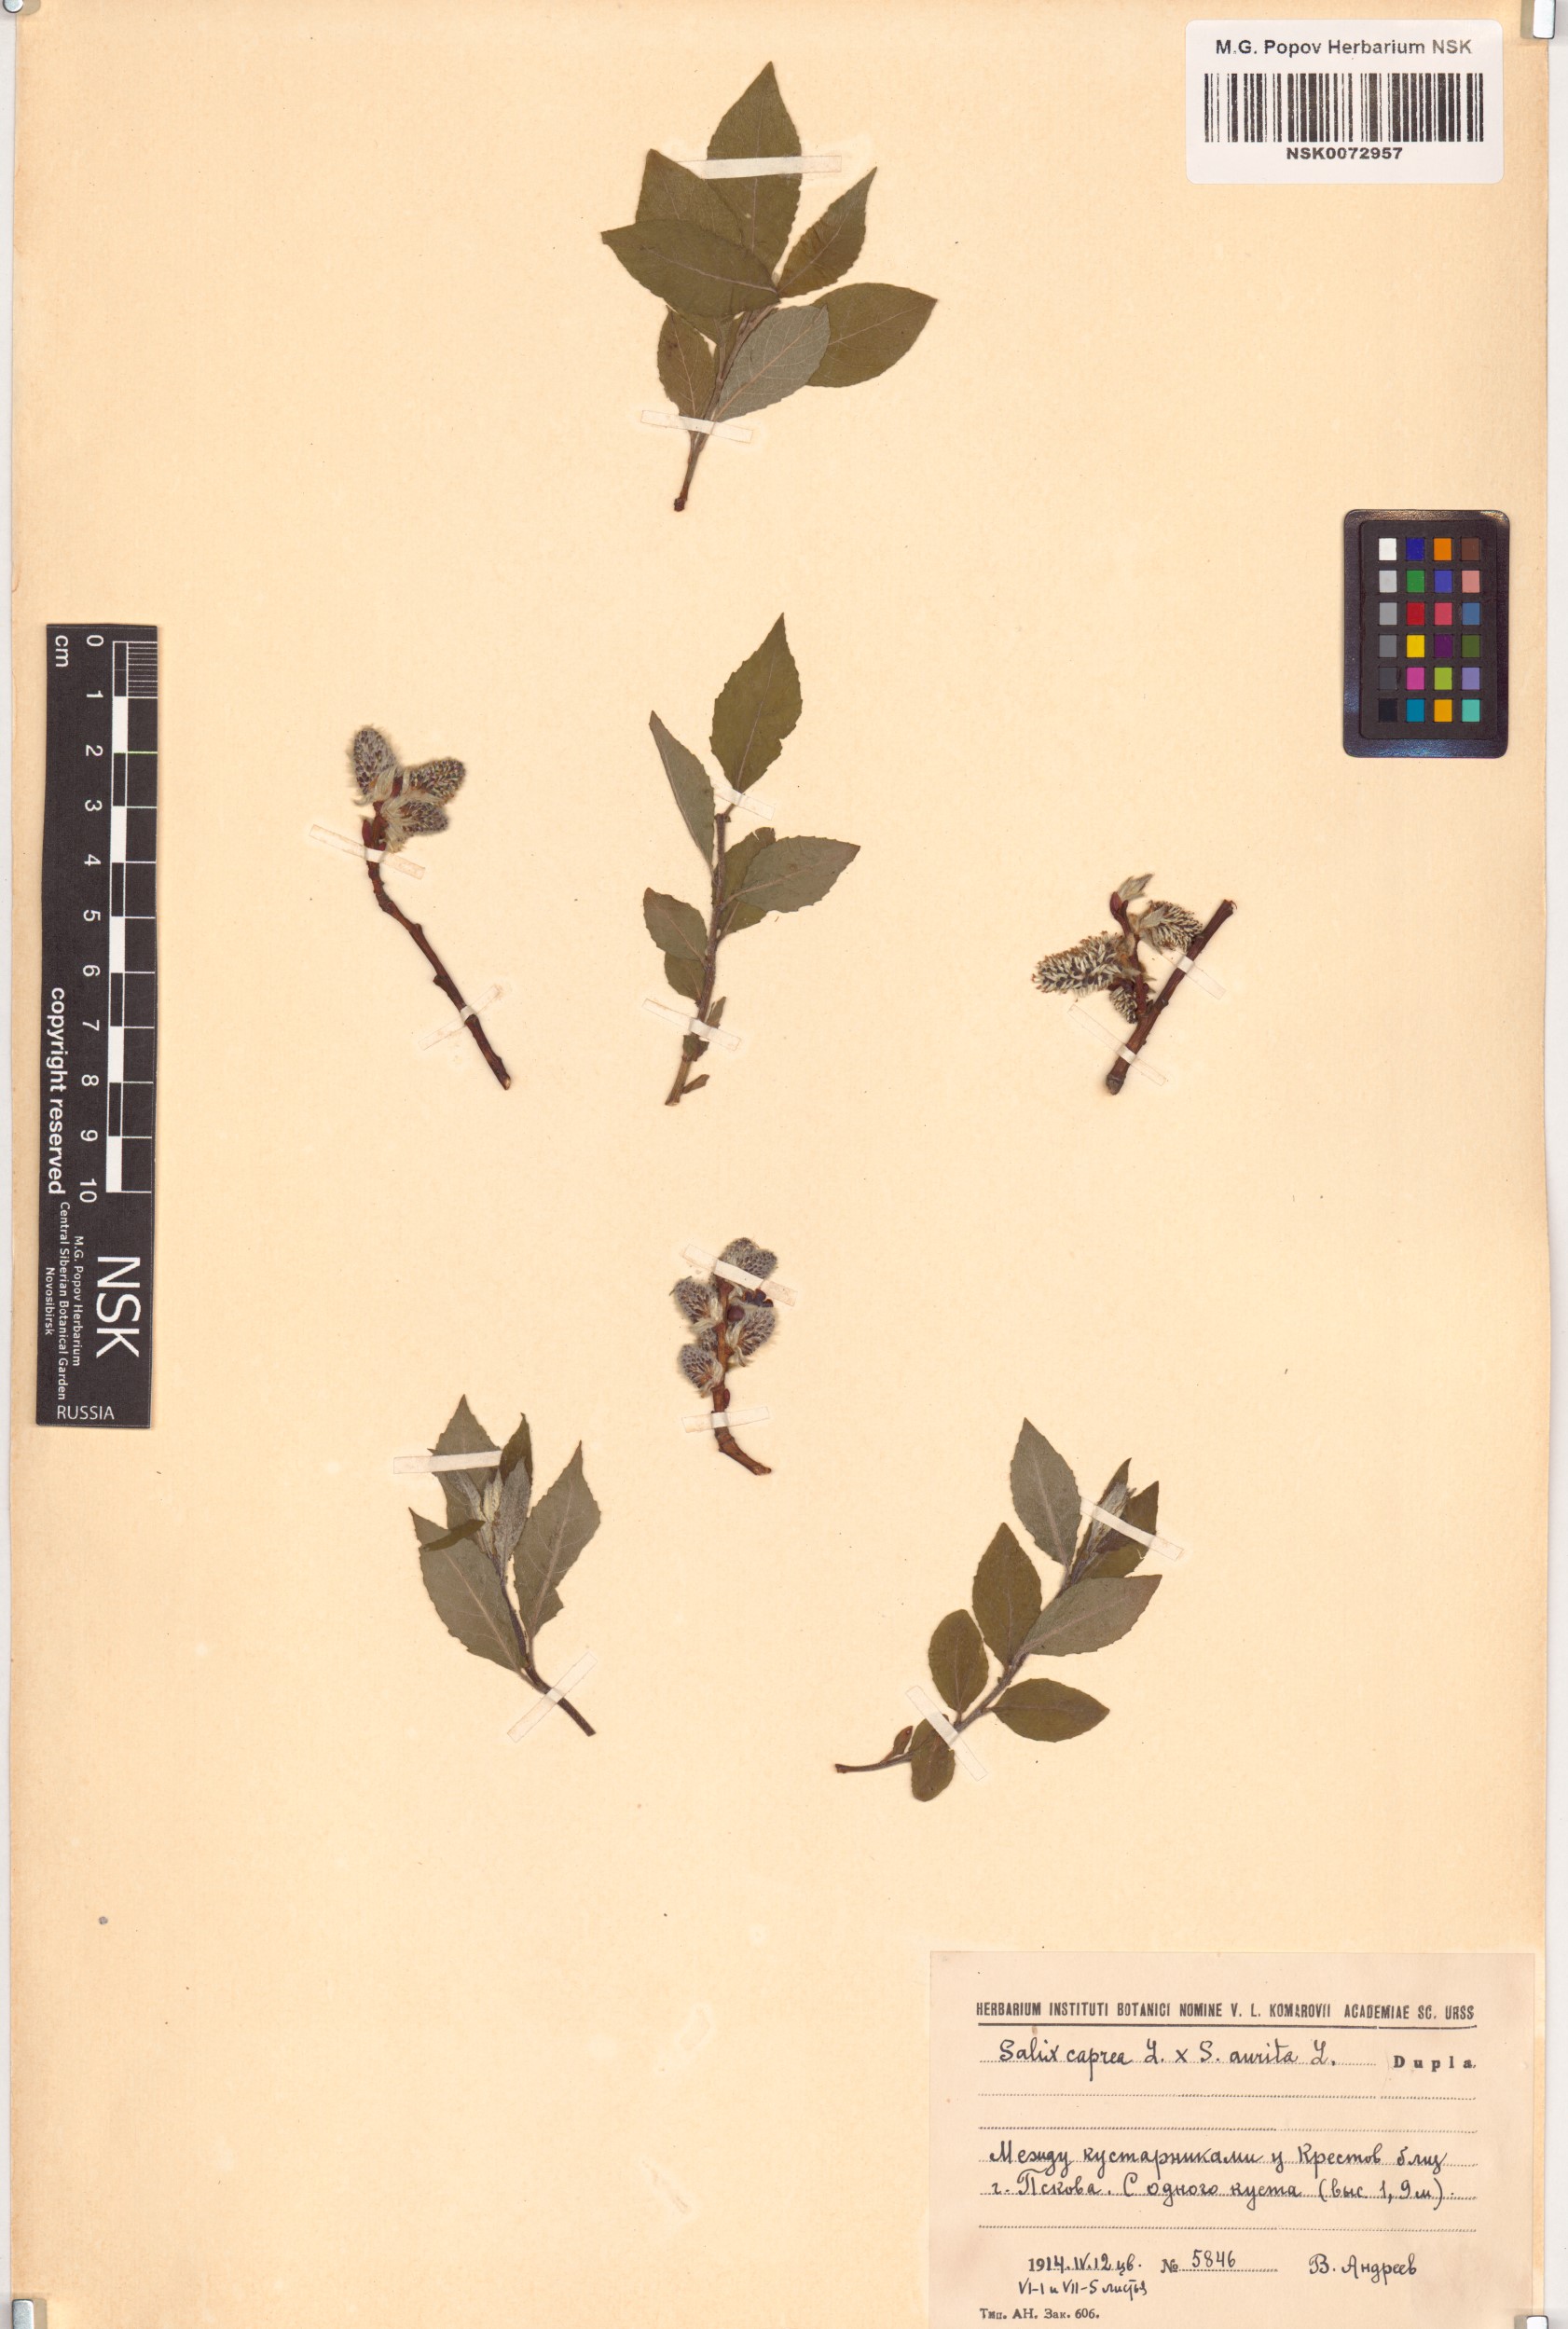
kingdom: Plantae
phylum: Tracheophyta
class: Magnoliopsida
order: Malpighiales
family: Salicaceae
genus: Salix
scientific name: Salix
